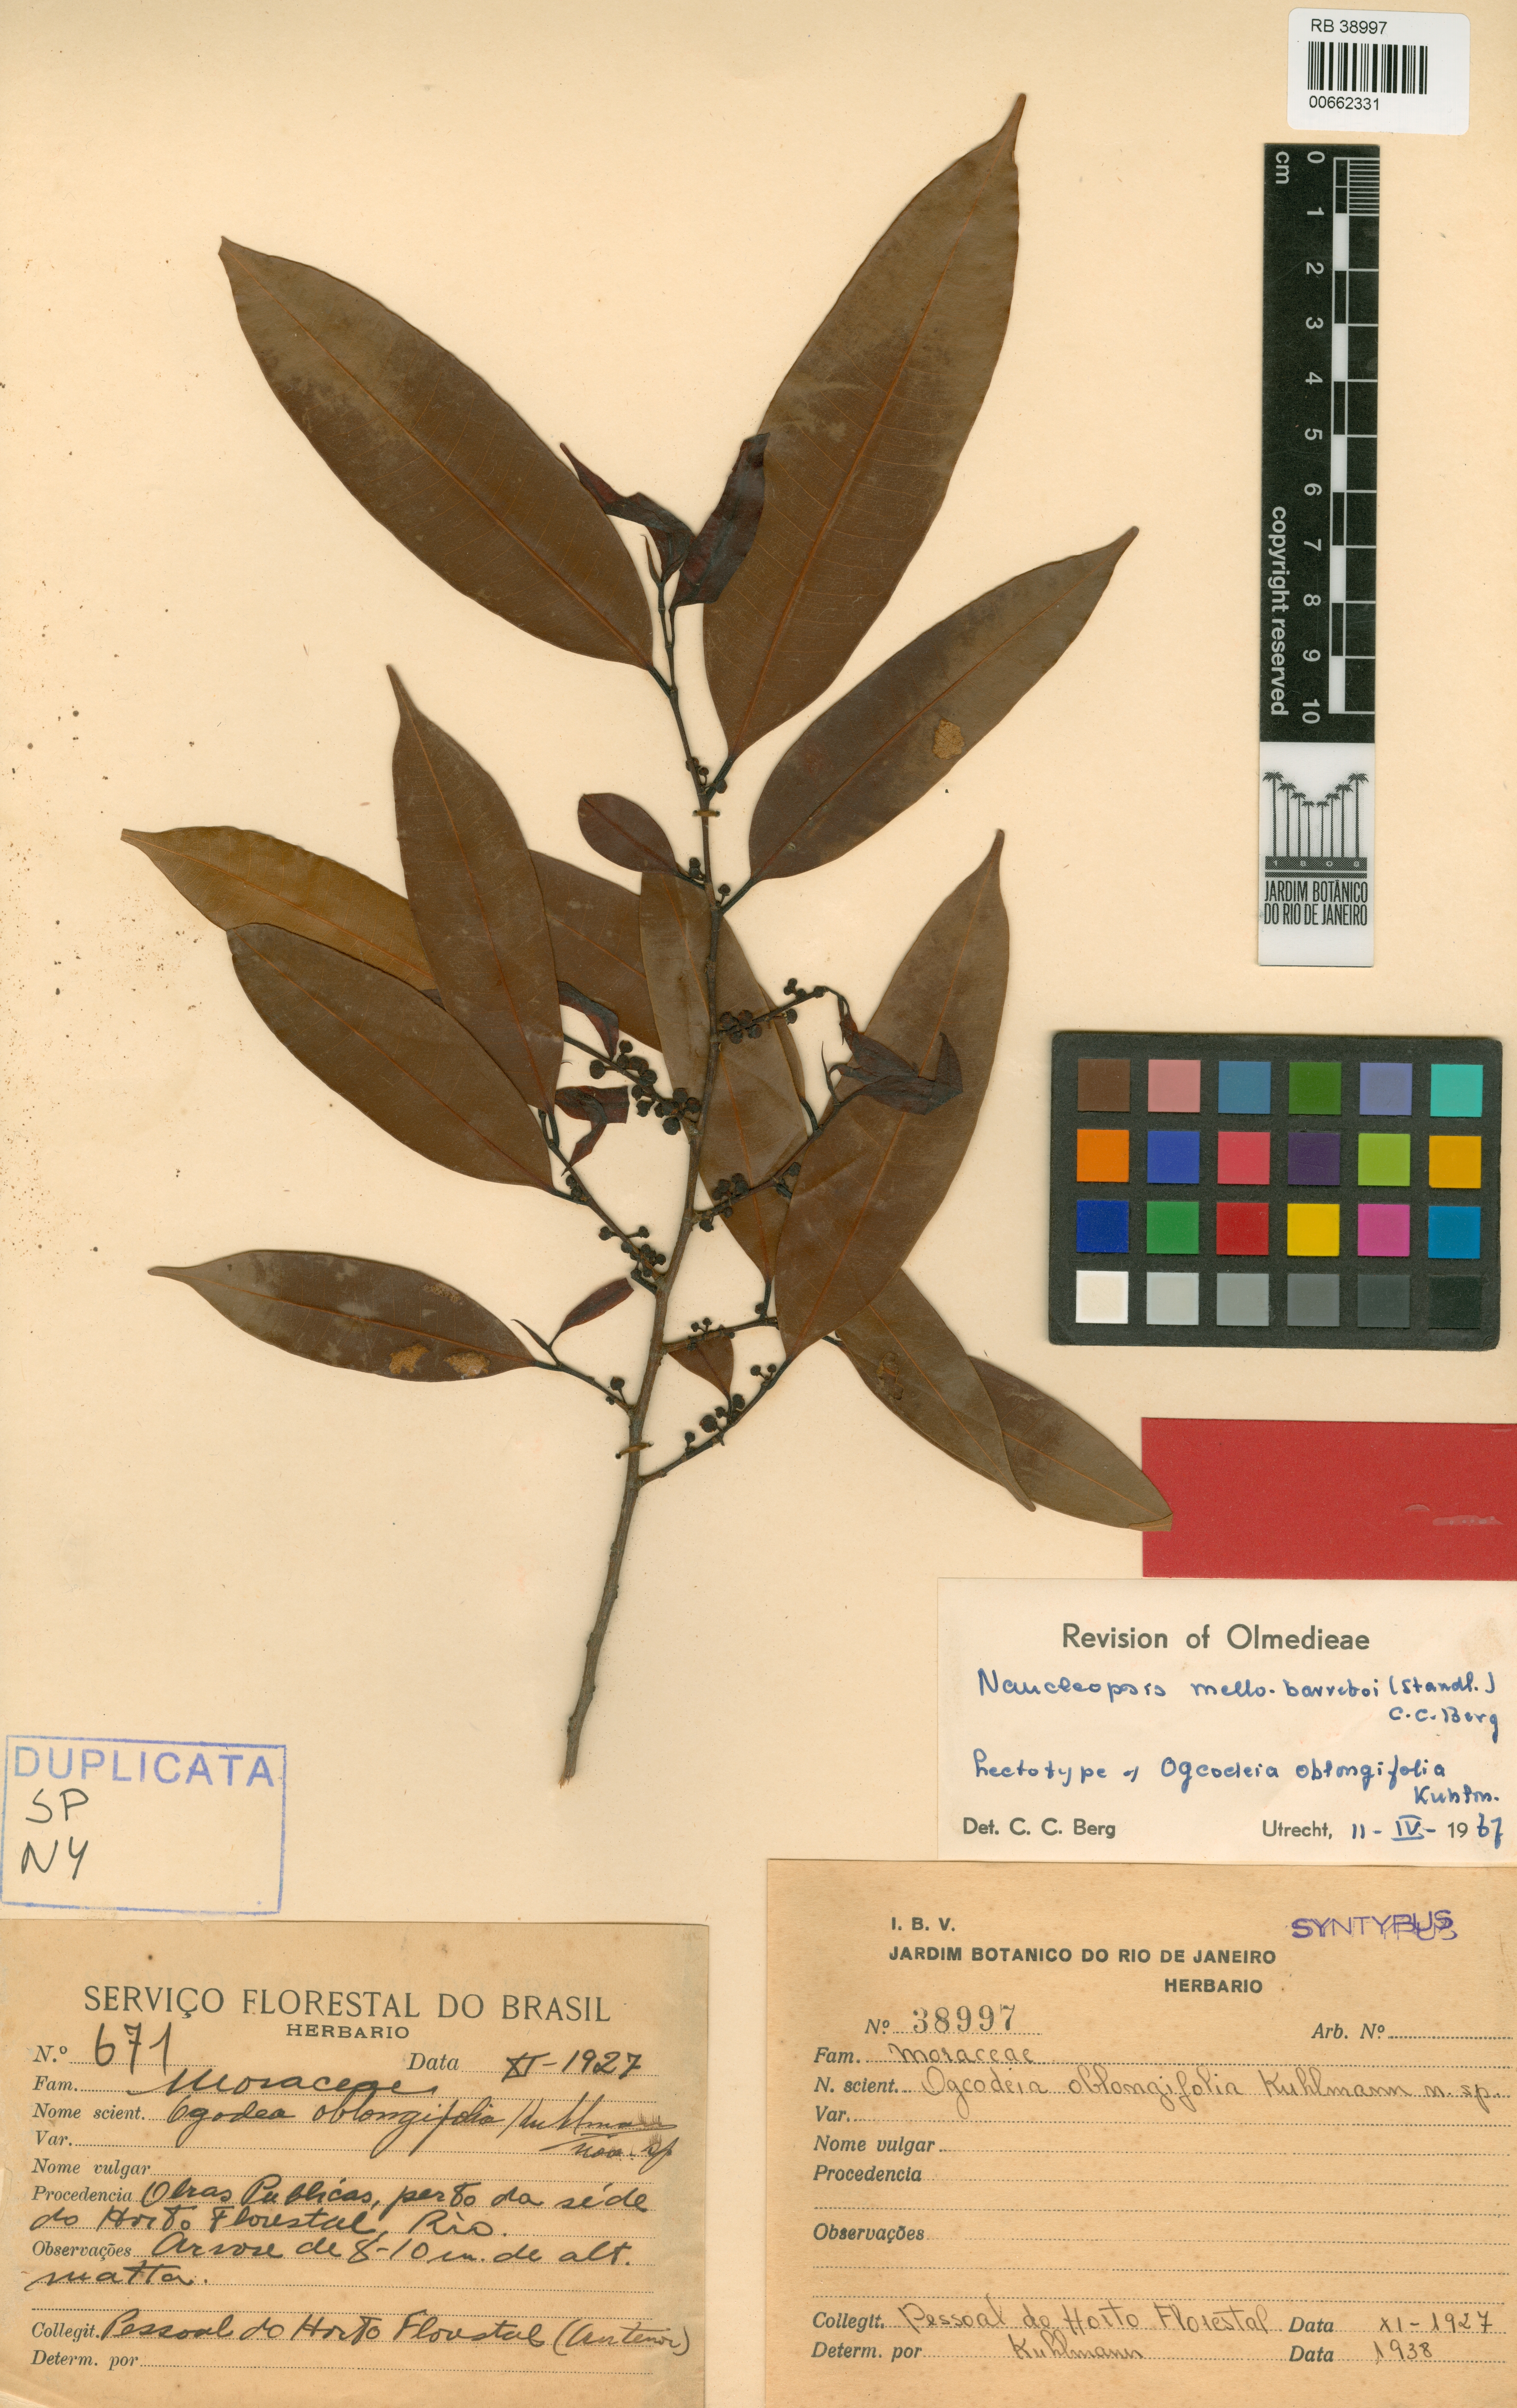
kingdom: Plantae
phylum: Tracheophyta
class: Magnoliopsida
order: Rosales
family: Moraceae
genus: Naucleopsis
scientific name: Naucleopsis oblongifolia
